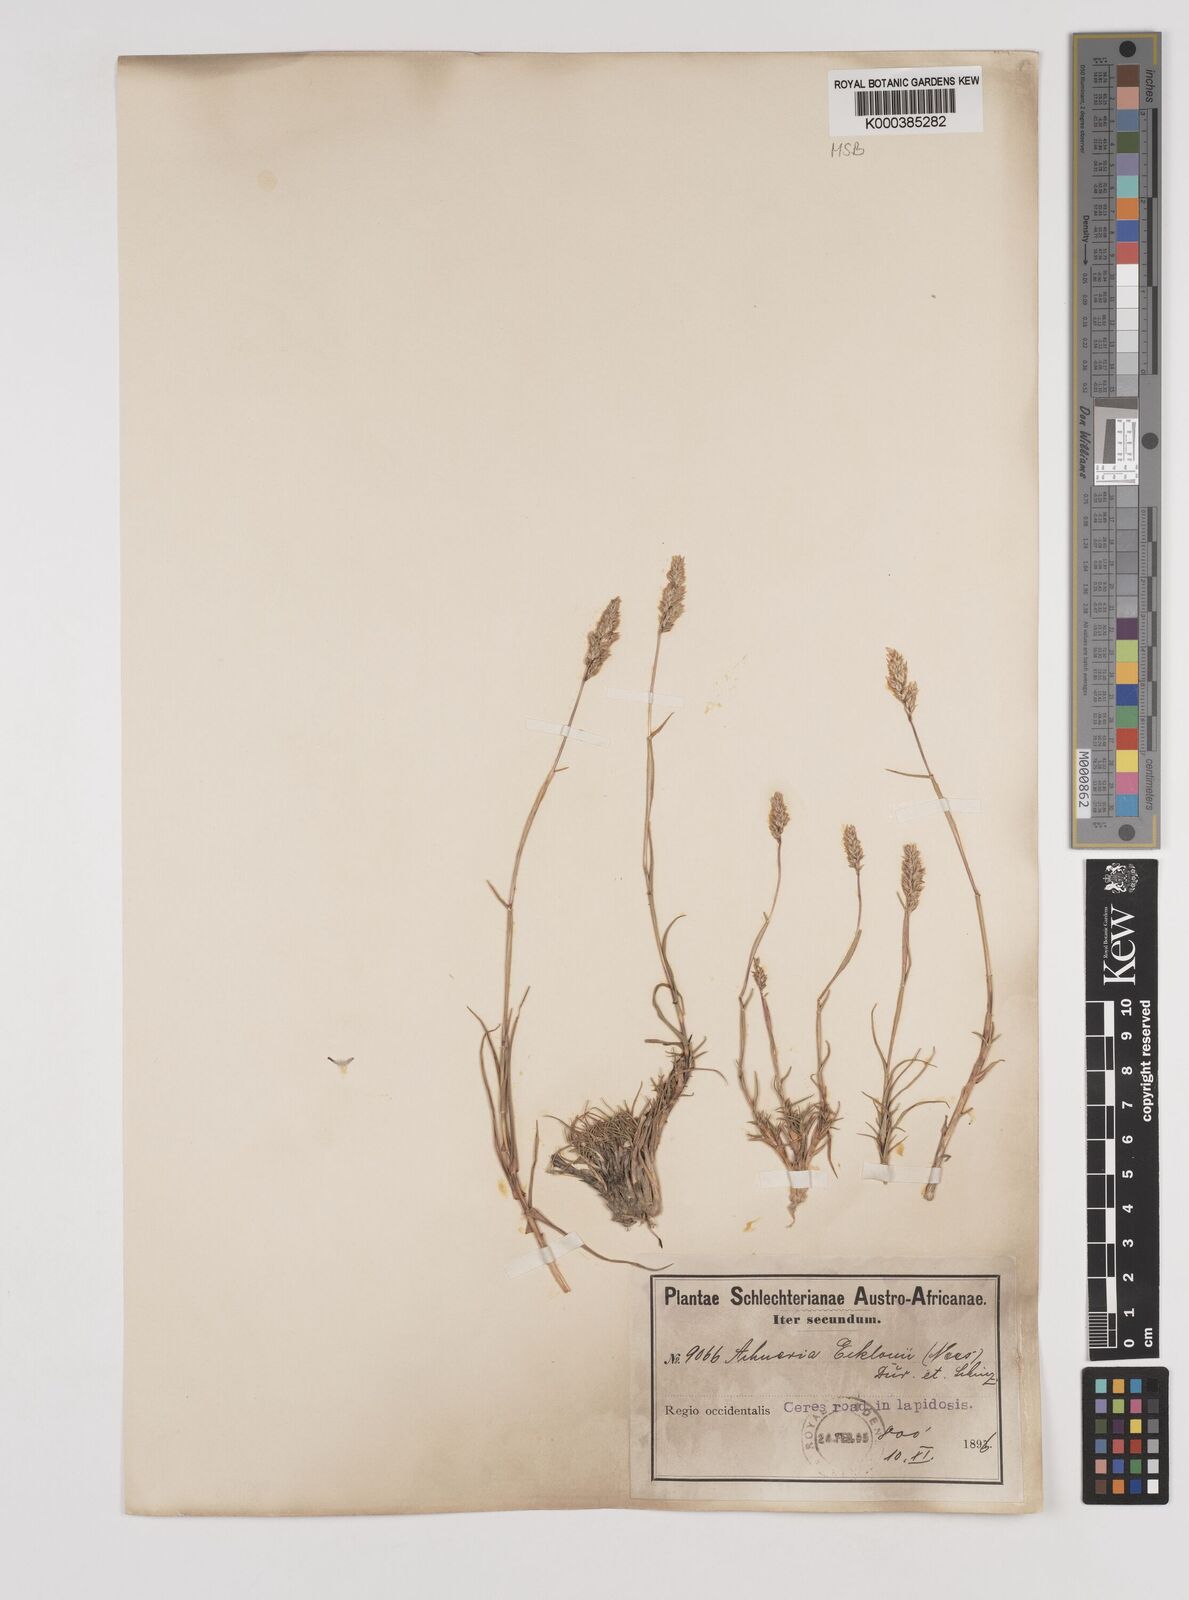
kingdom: Plantae
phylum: Tracheophyta
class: Liliopsida
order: Poales
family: Poaceae
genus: Pentameris
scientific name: Pentameris ecklonii
